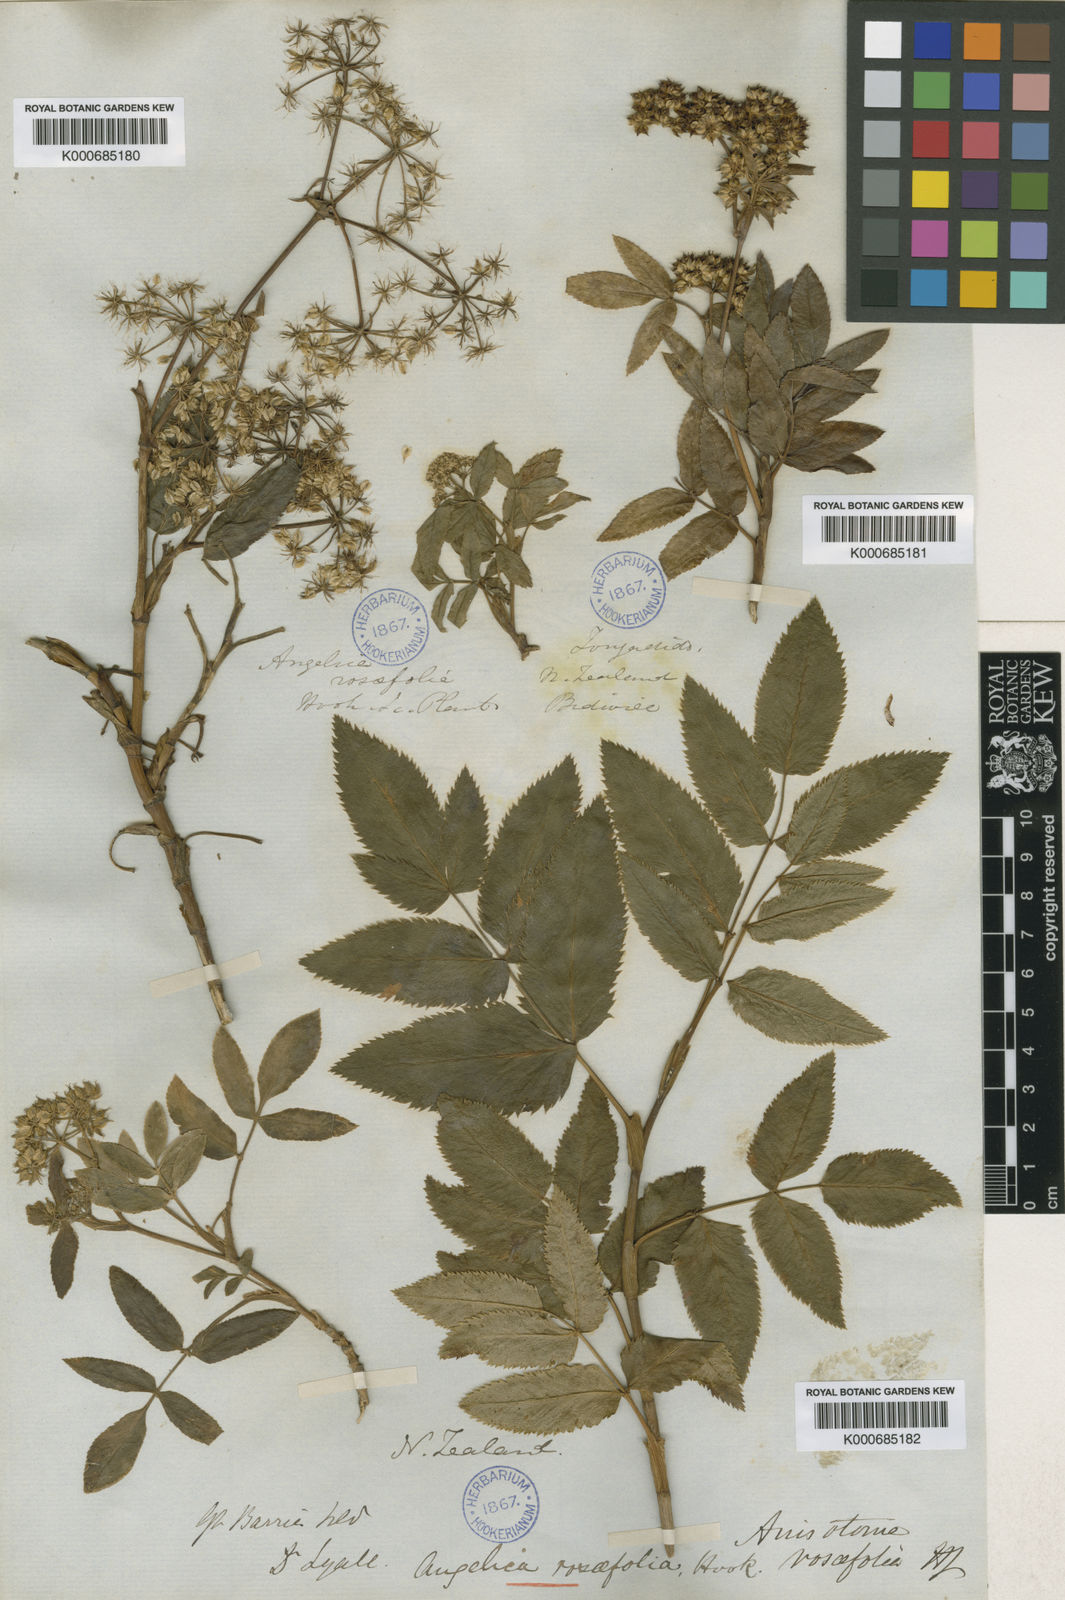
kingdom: Plantae
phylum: Tracheophyta
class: Magnoliopsida
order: Apiales
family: Apiaceae
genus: Scandia
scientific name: Scandia rosifolia
